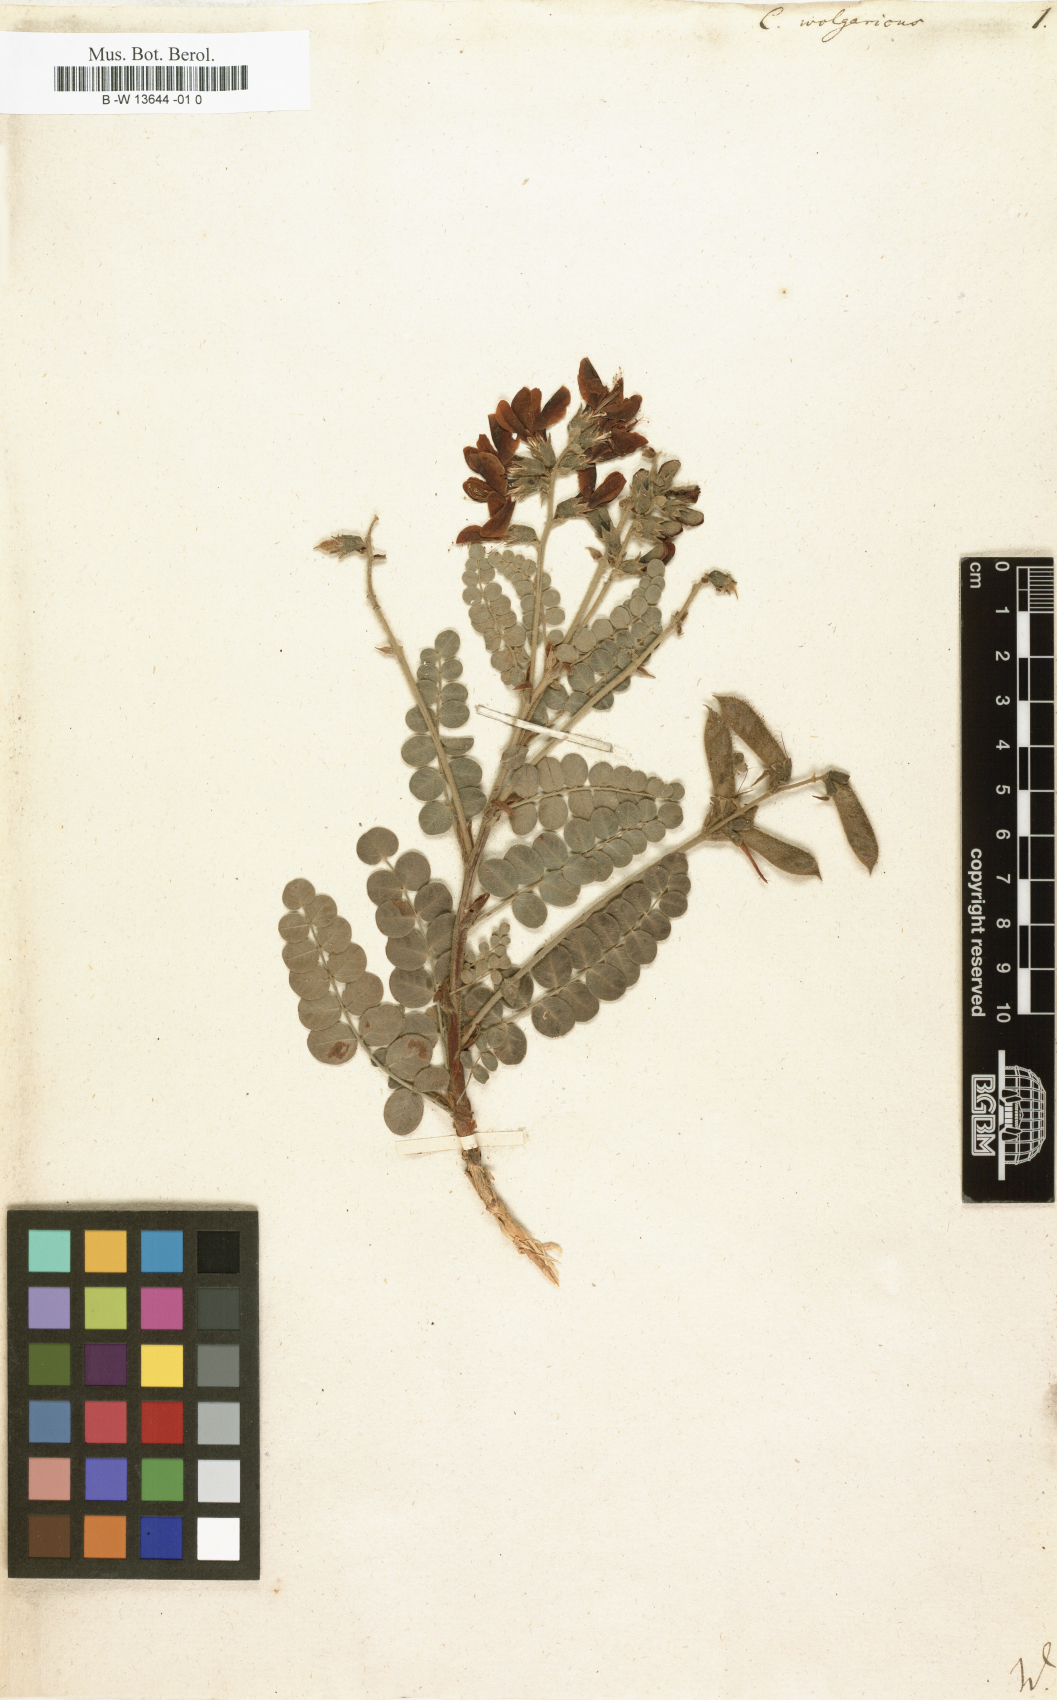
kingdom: Plantae
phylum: Tracheophyta
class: Magnoliopsida
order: Fabales
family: Fabaceae
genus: Calophaca
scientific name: Calophaca wolgarica
